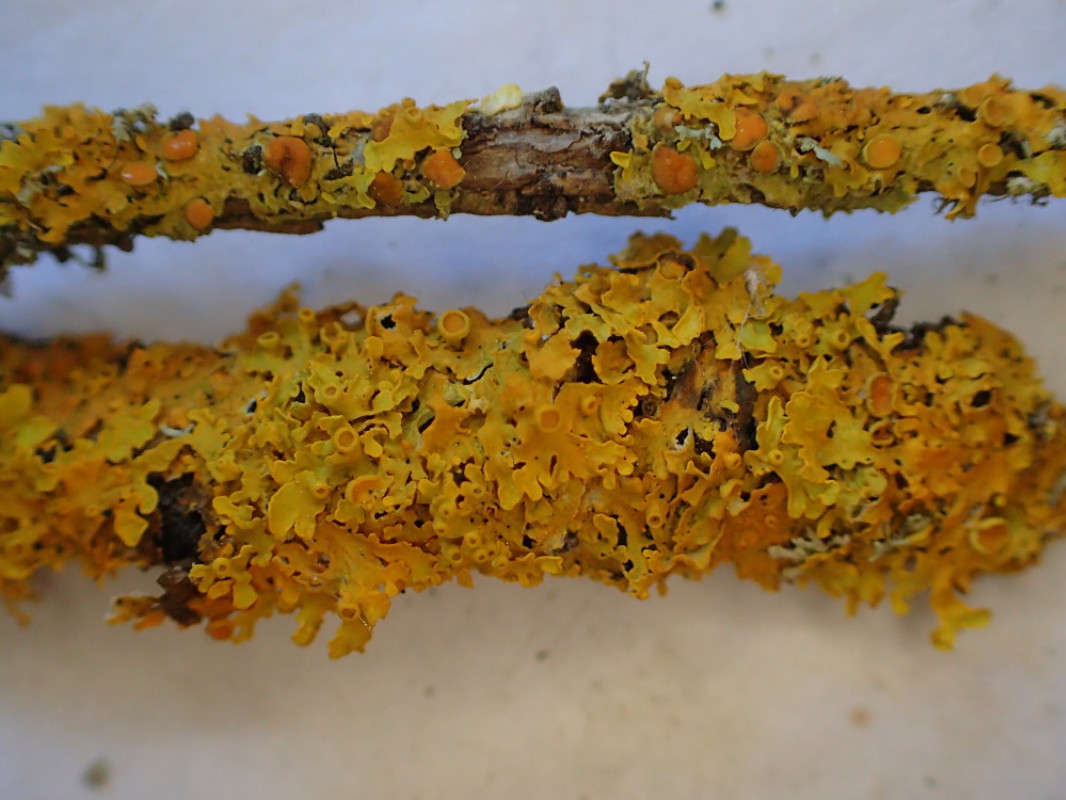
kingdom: Fungi
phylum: Ascomycota
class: Lecanoromycetes
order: Teloschistales
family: Teloschistaceae
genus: Xanthoria
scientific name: Xanthoria parietina
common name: almindelig væggelav
